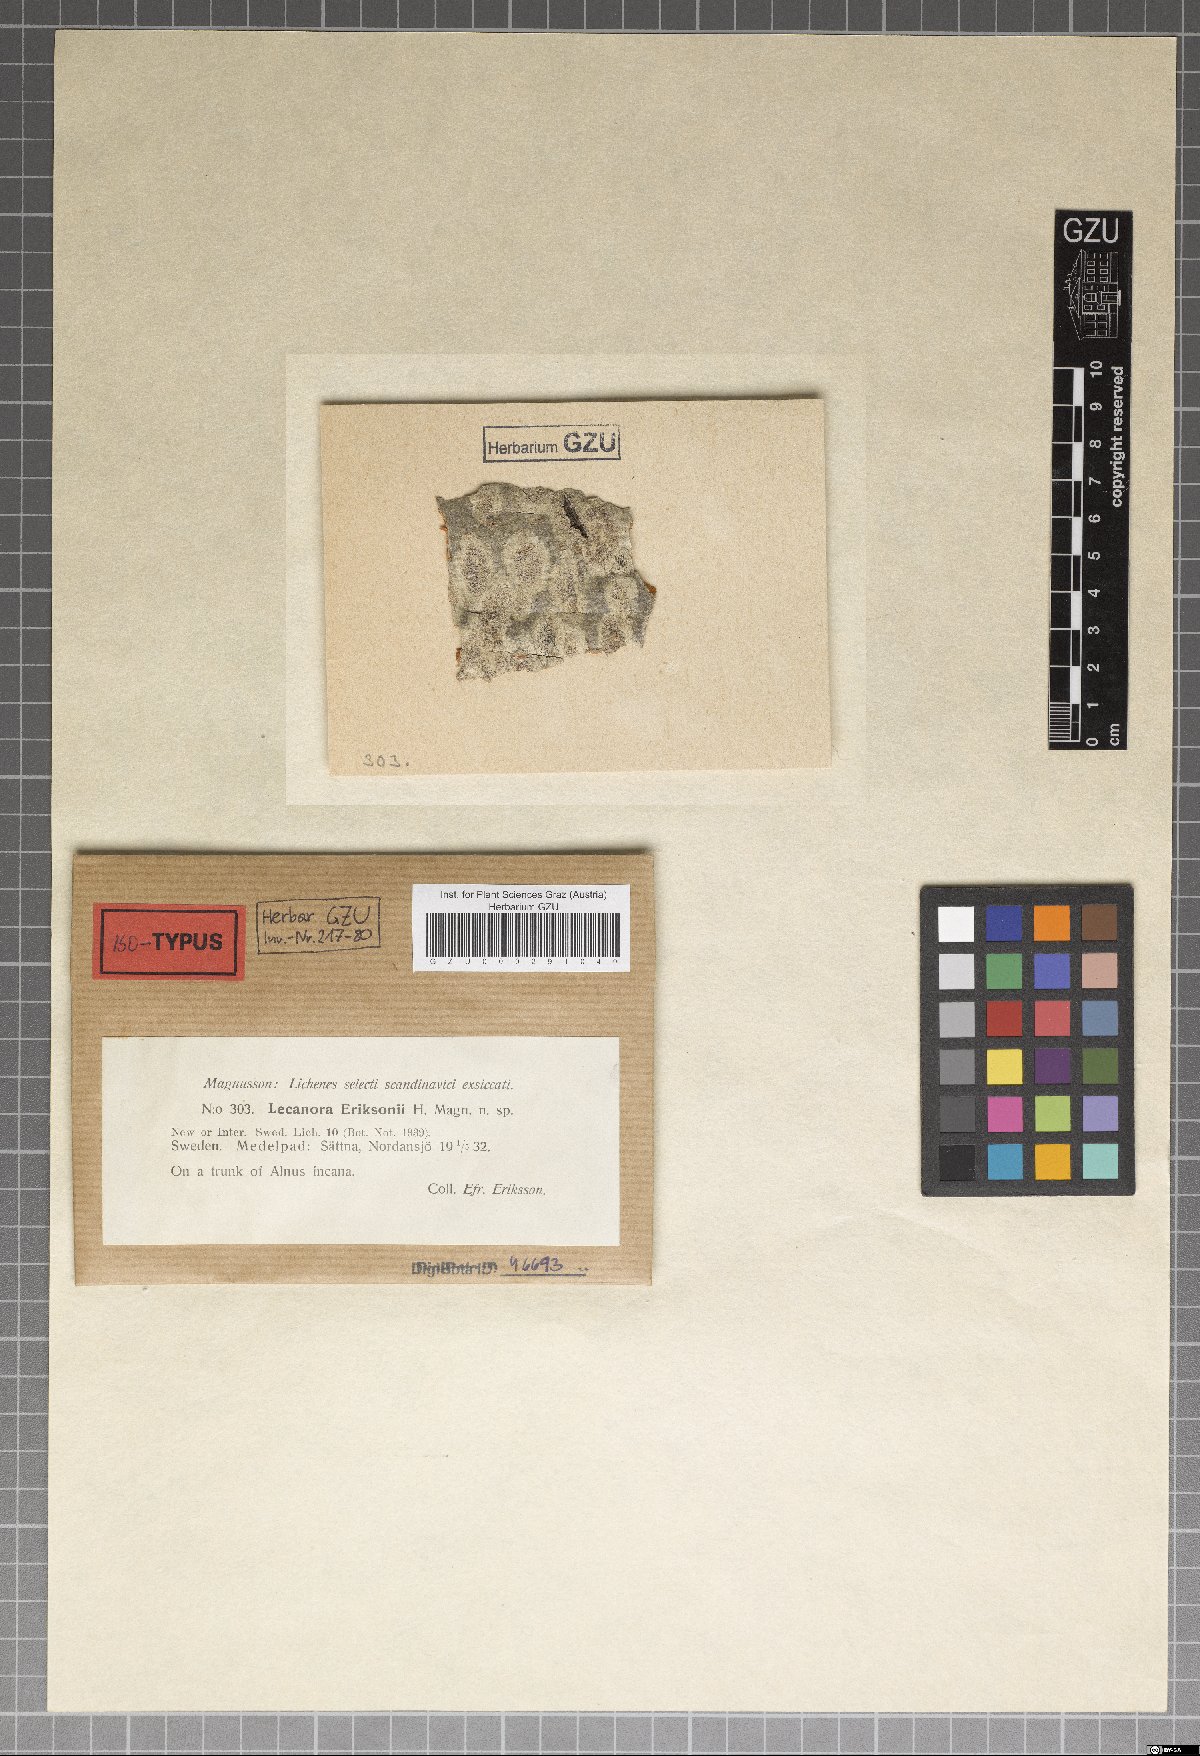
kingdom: Fungi
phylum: Ascomycota
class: Lecanoromycetes
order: Lecanorales
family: Lecanoraceae
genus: Glaucomaria
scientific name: Glaucomaria carpinea
